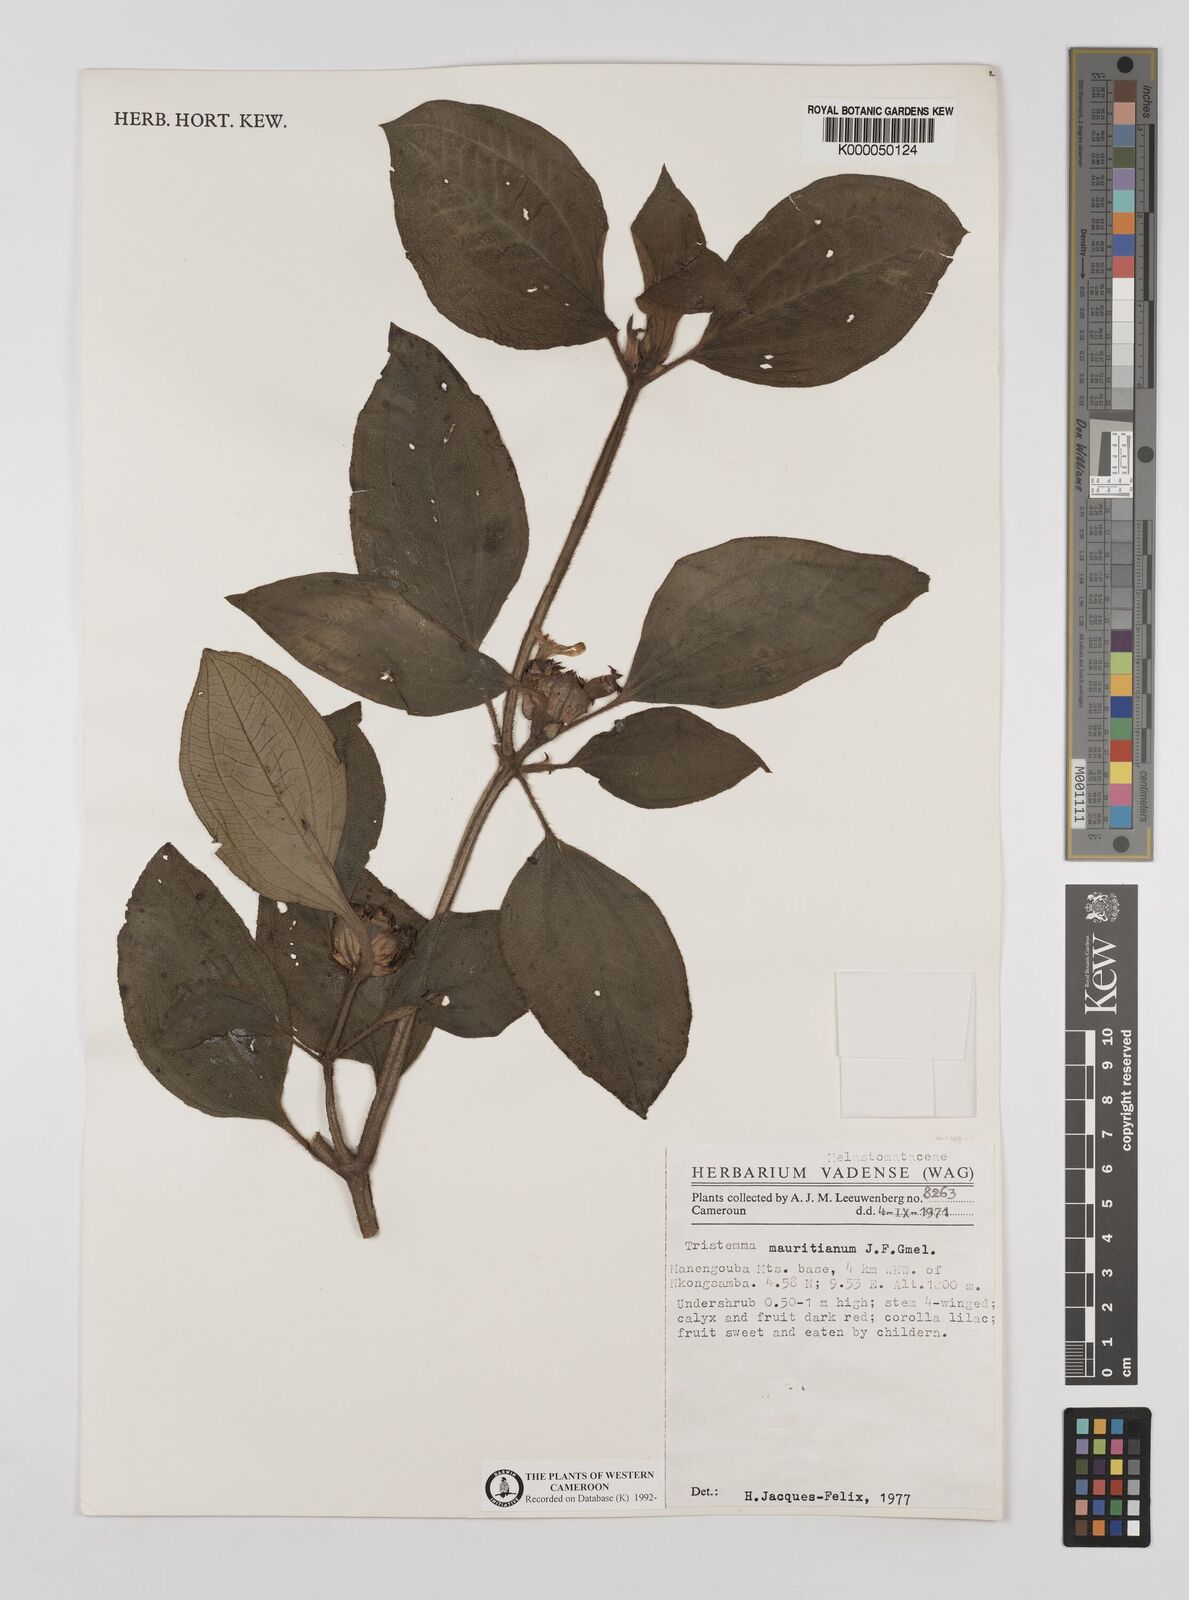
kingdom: Plantae
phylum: Tracheophyta
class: Magnoliopsida
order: Myrtales
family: Melastomataceae
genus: Tristemma
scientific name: Tristemma
